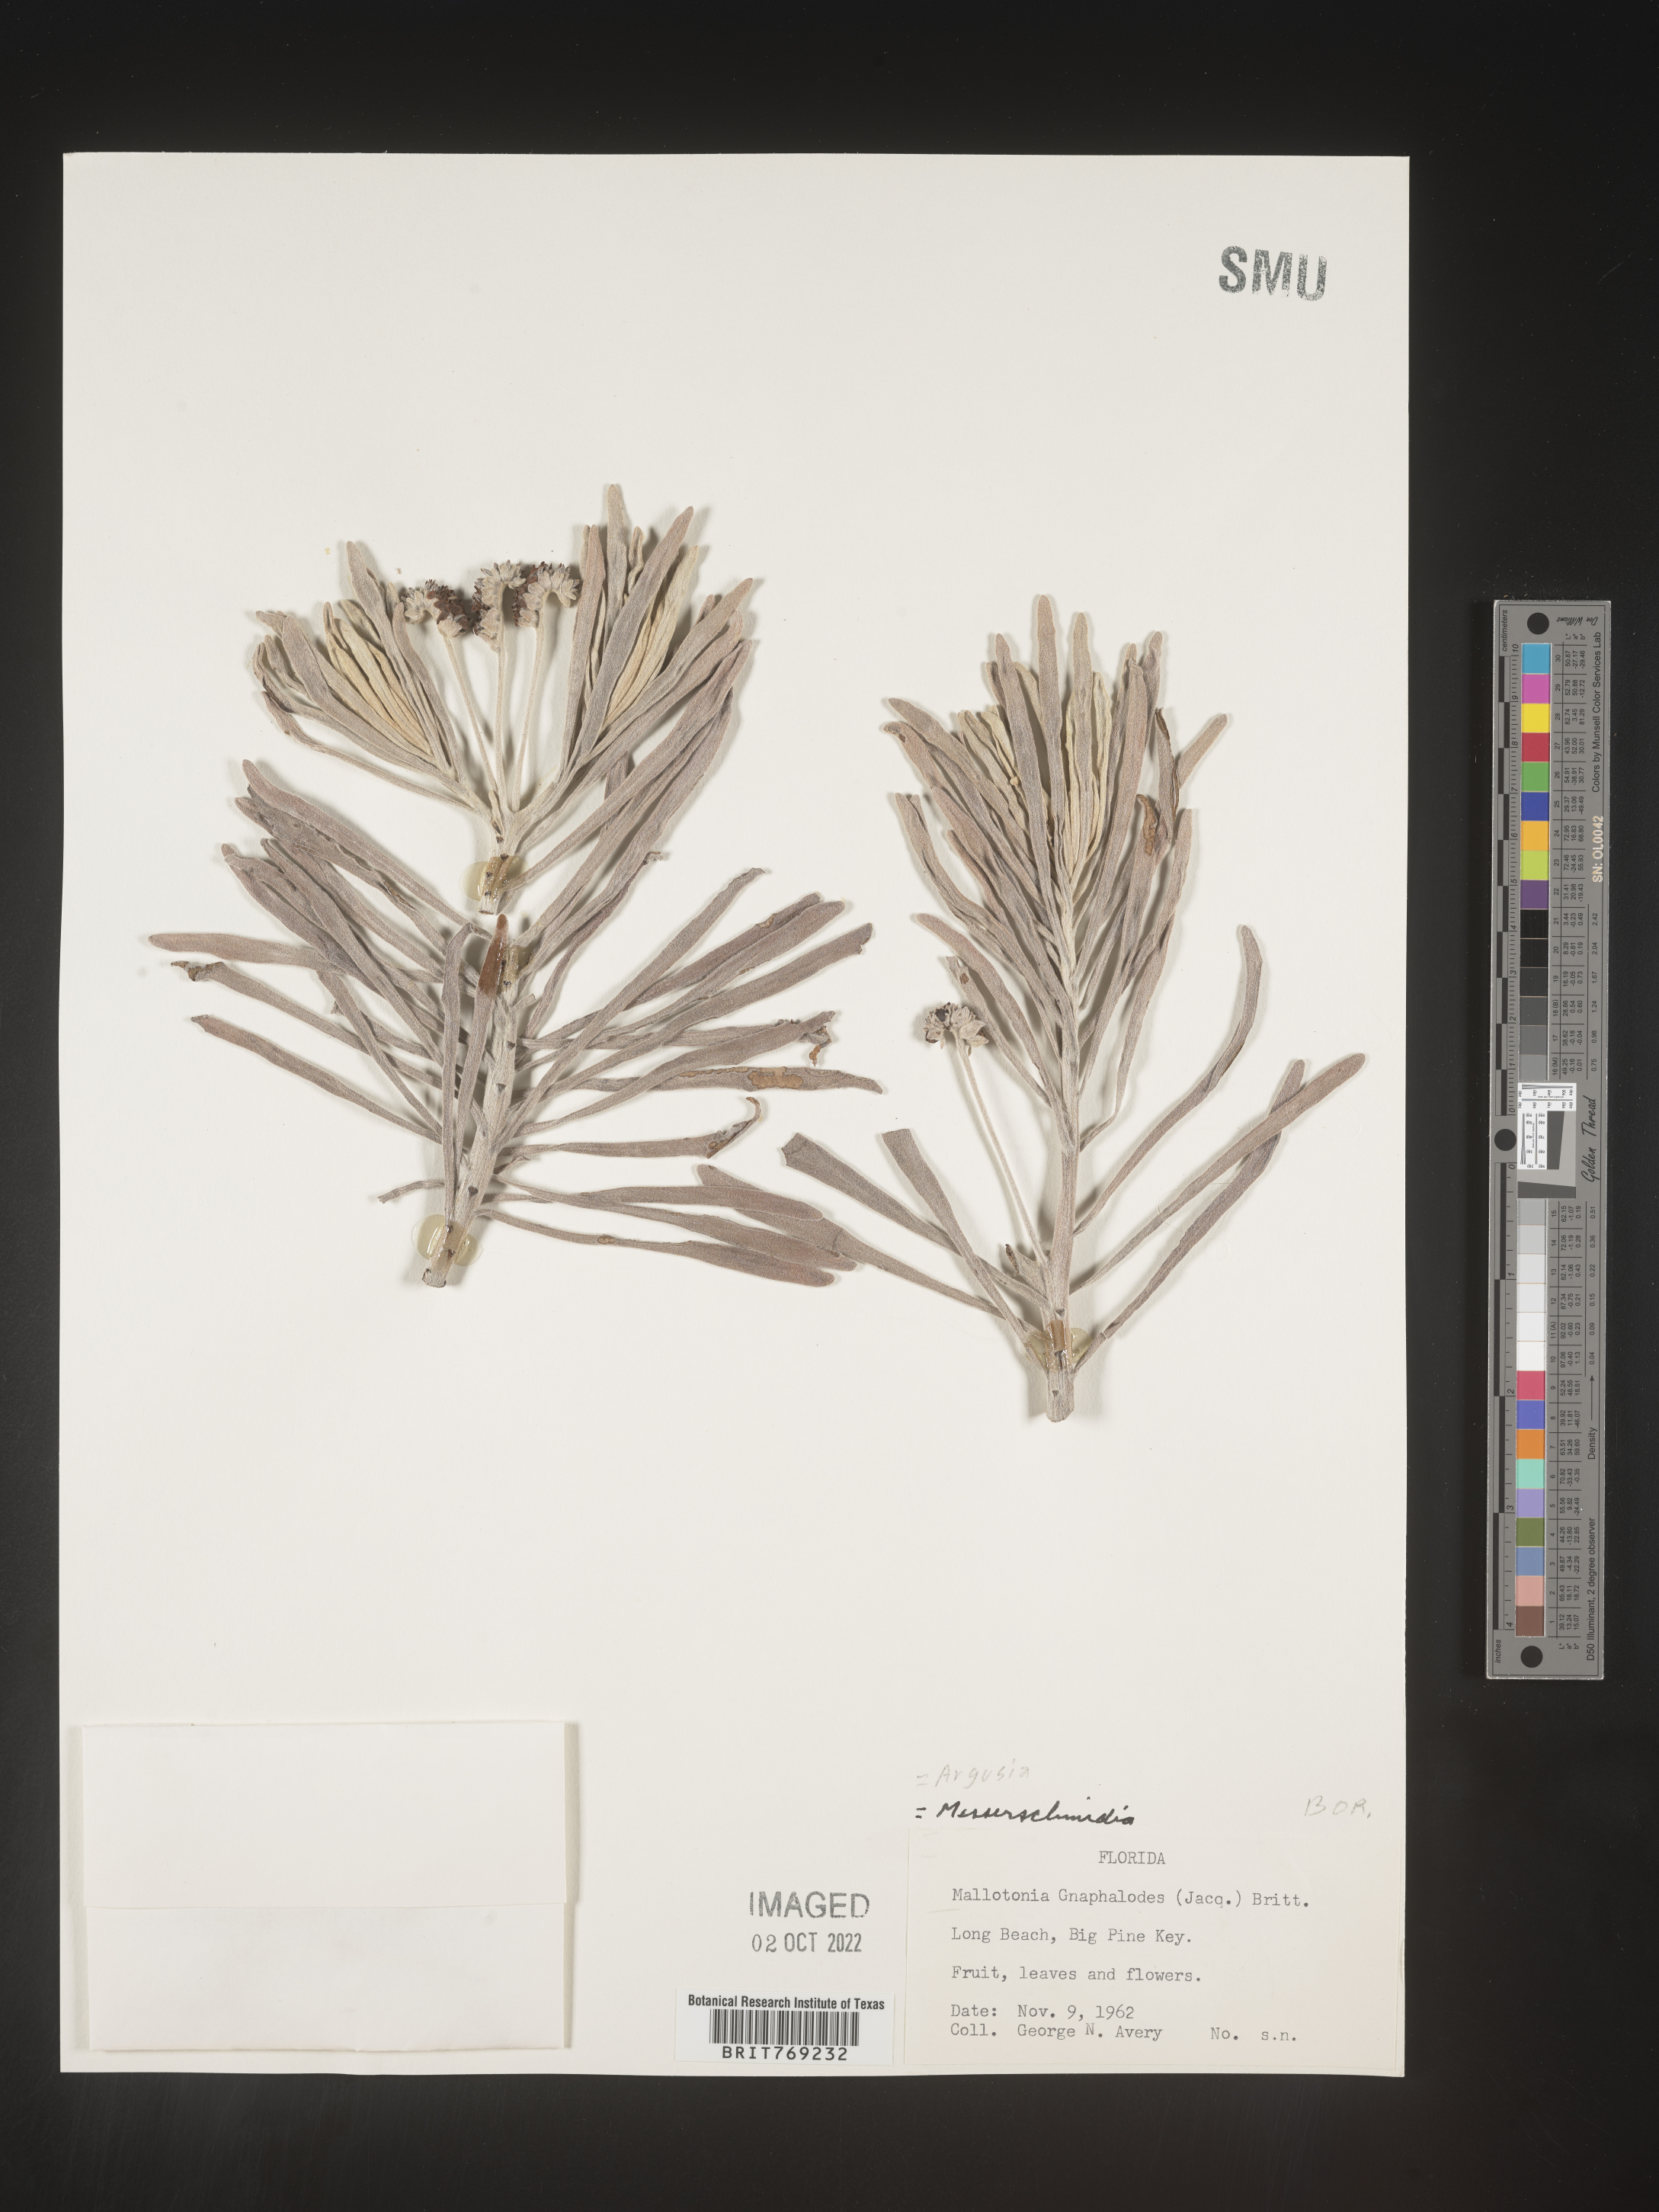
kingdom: Plantae
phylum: Tracheophyta
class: Magnoliopsida
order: Boraginales
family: Heliotropiaceae
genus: Tournefortia
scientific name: Tournefortia
